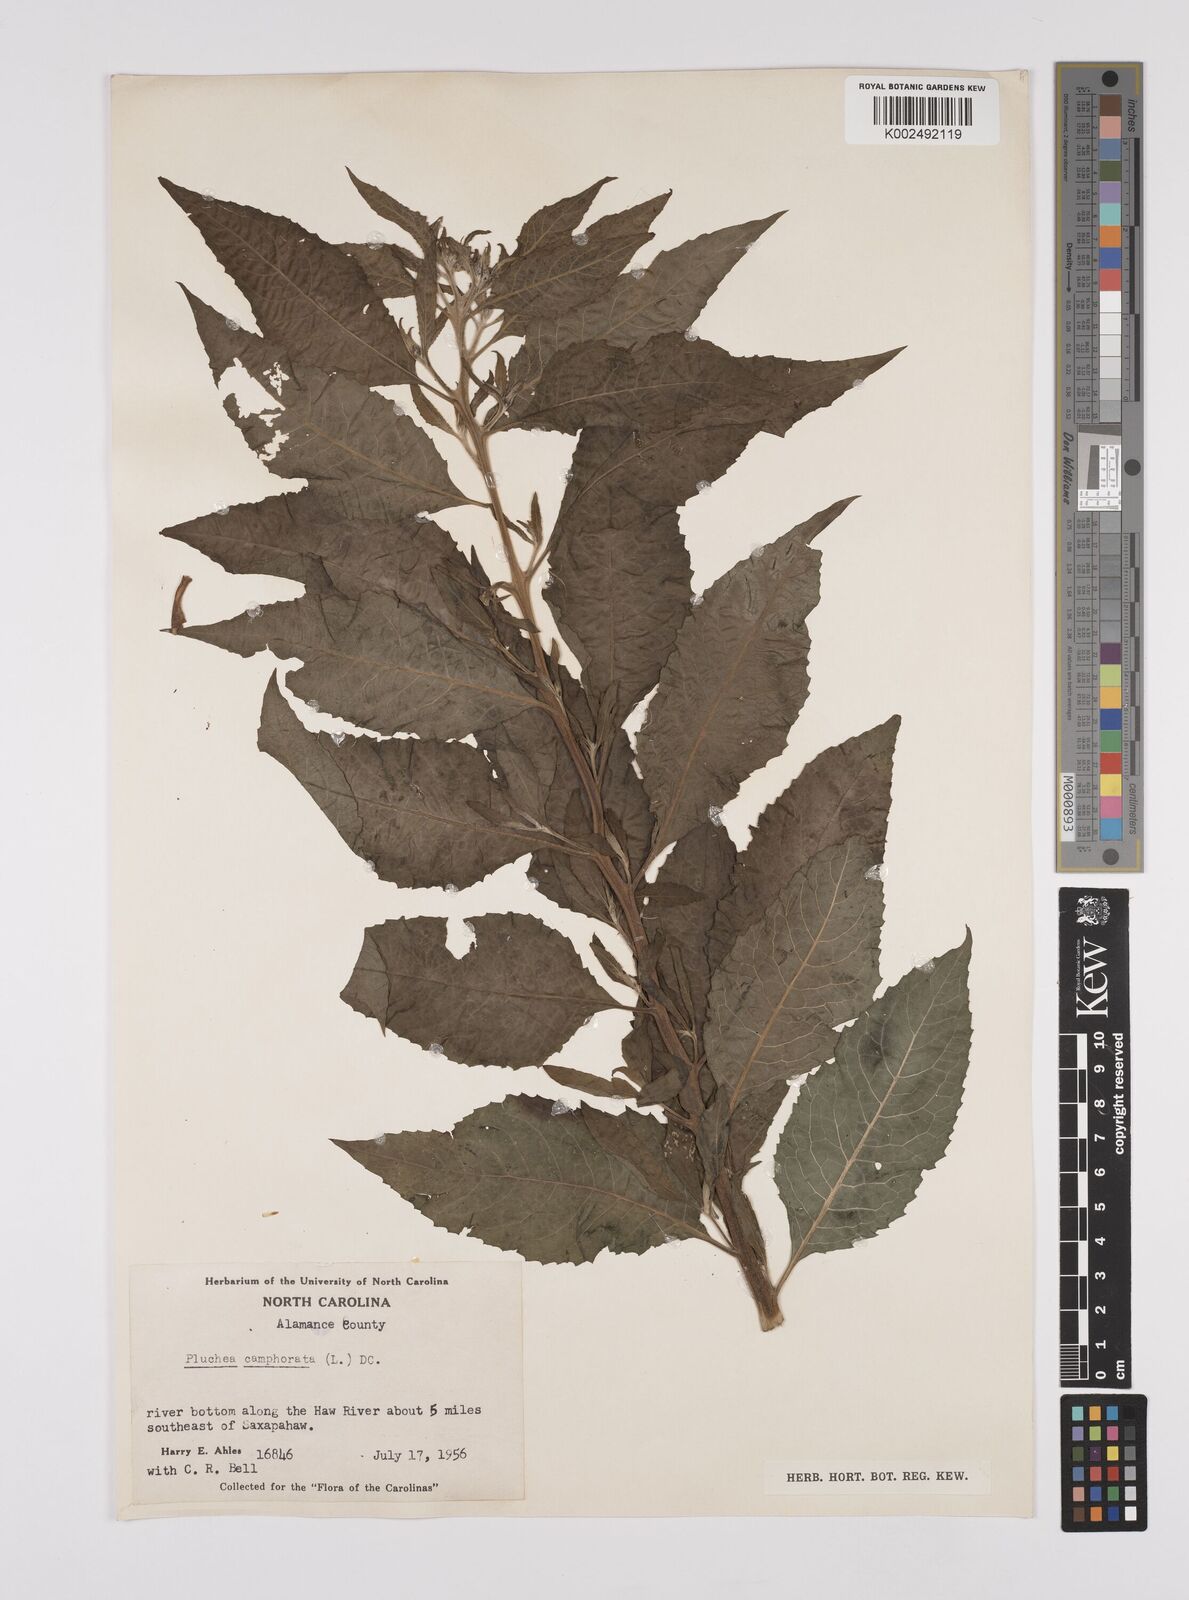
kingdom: Plantae
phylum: Tracheophyta
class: Magnoliopsida
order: Asterales
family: Asteraceae
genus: Pluchea
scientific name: Pluchea camphorata
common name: Camphor pluchea
